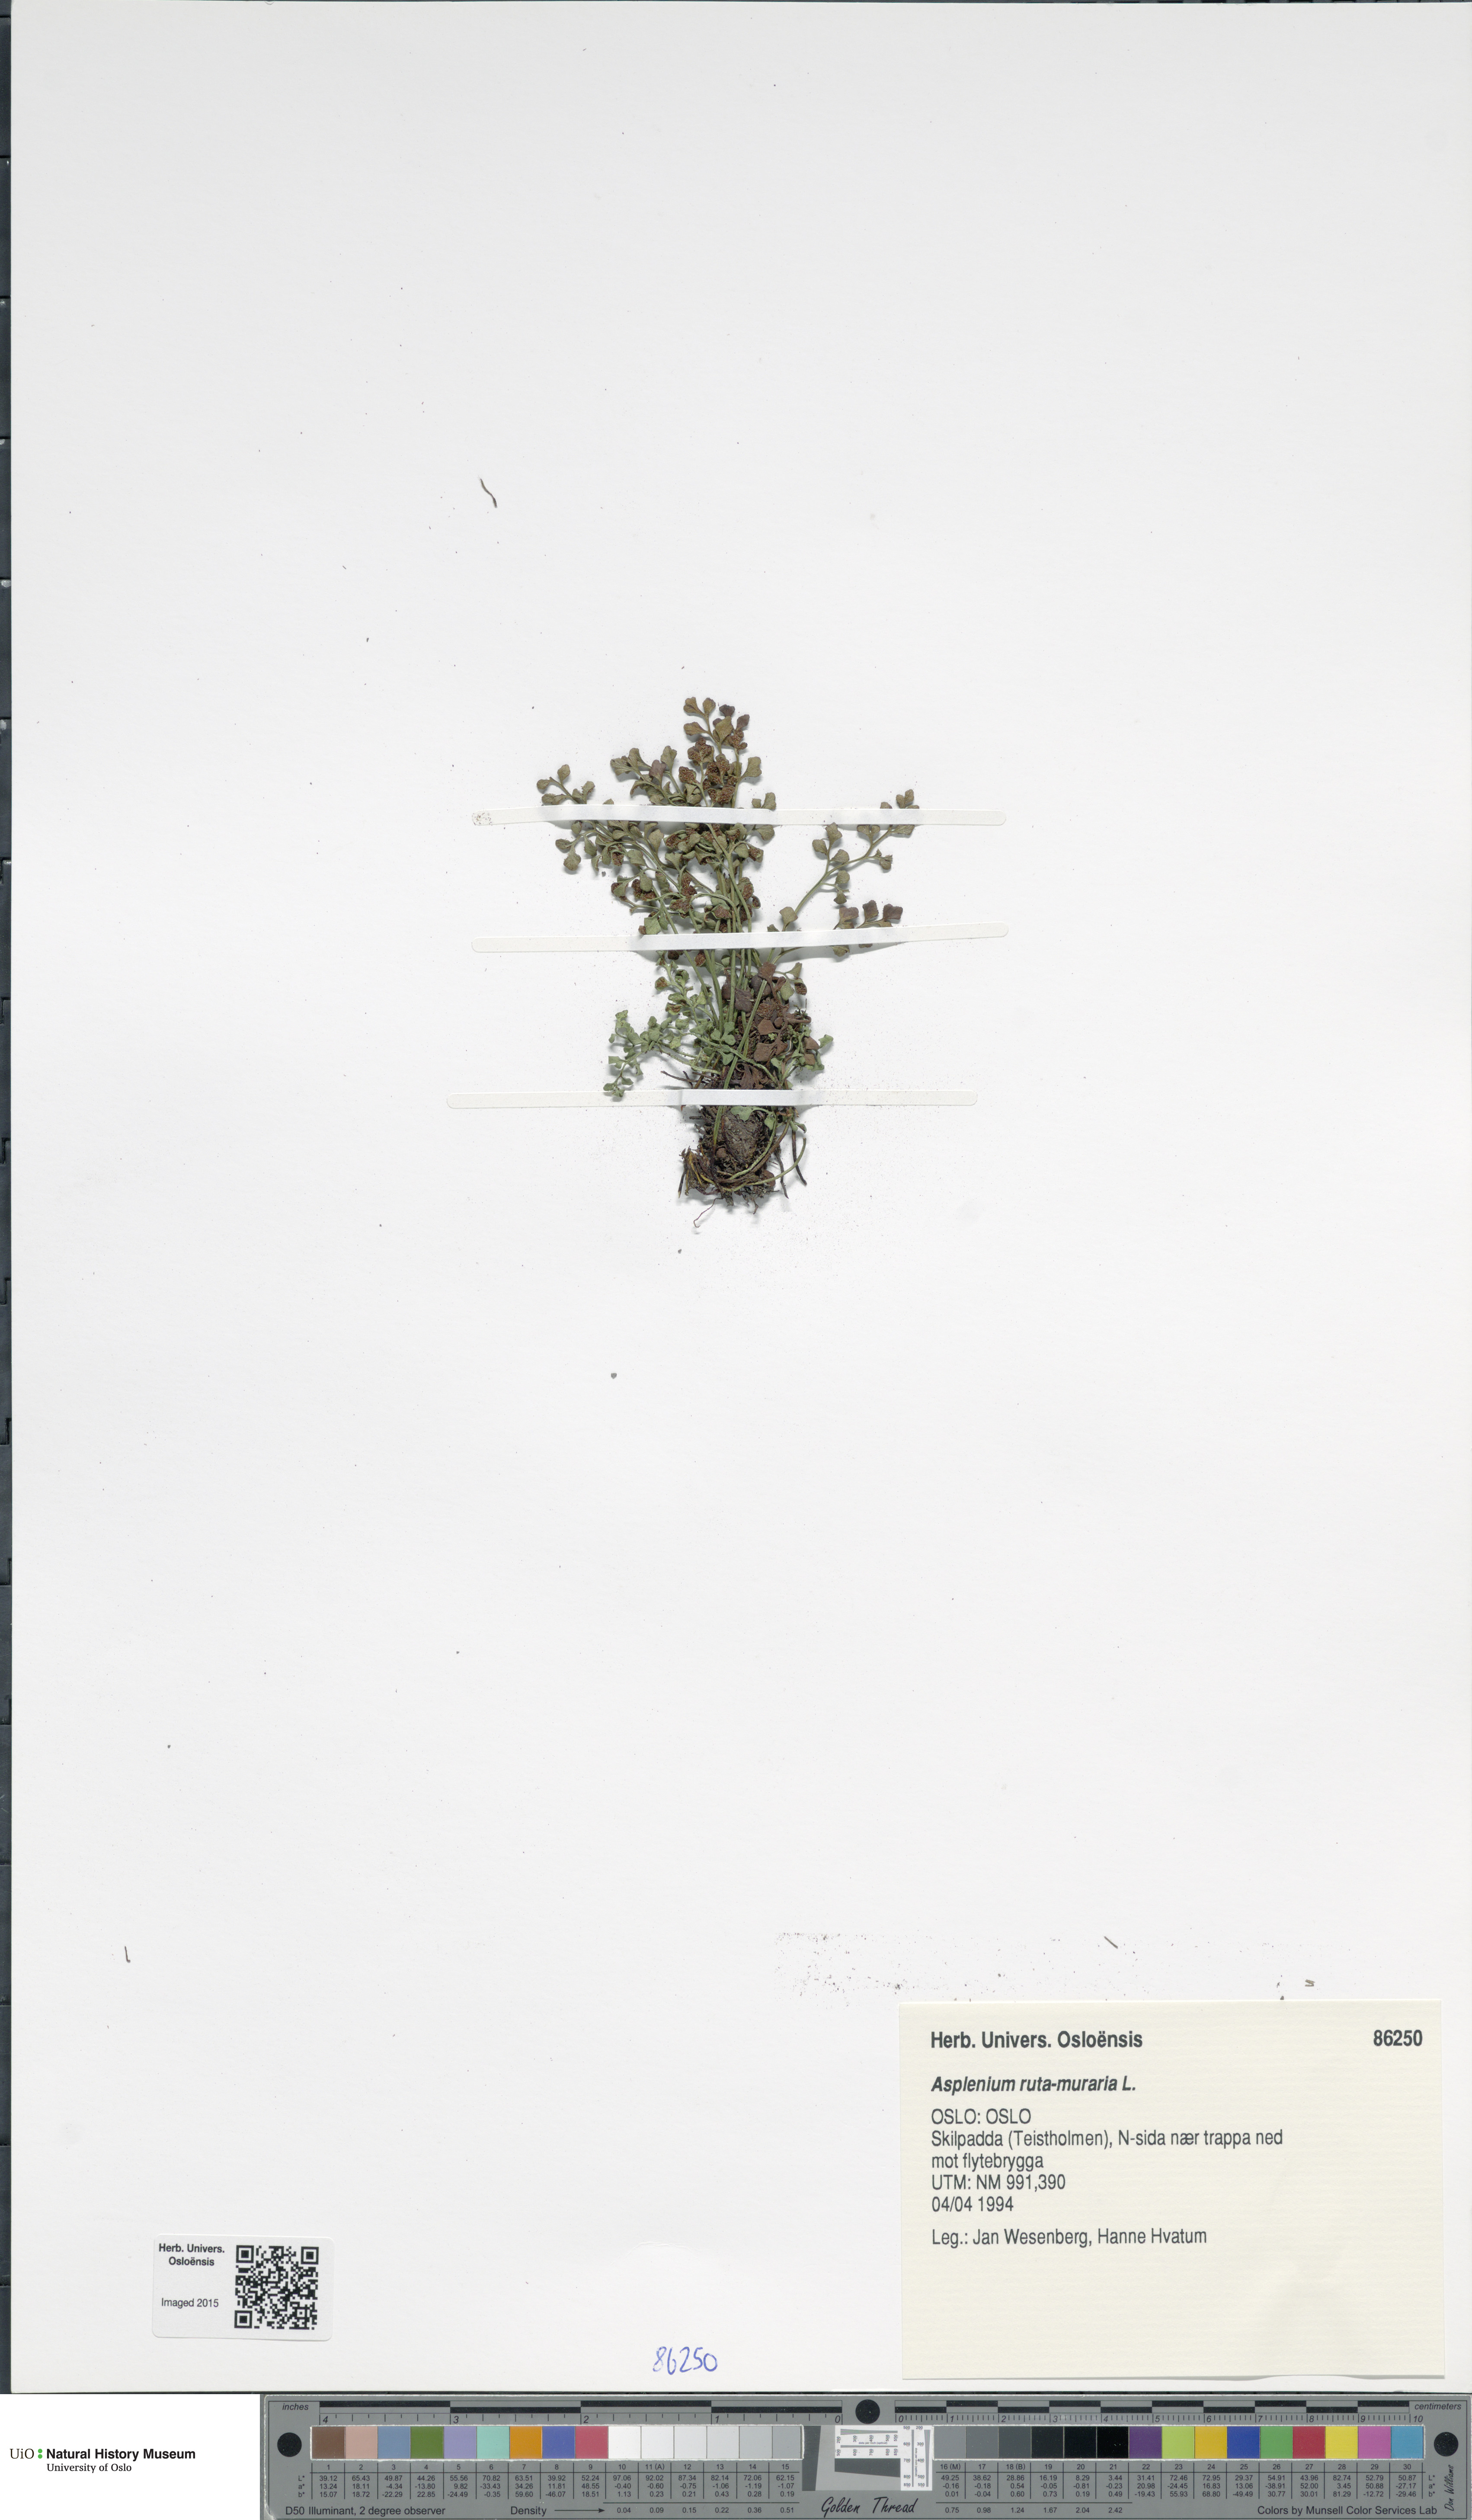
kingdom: Plantae
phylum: Tracheophyta
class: Polypodiopsida
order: Polypodiales
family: Aspleniaceae
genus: Asplenium
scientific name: Asplenium ruta-muraria
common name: Wall-rue
